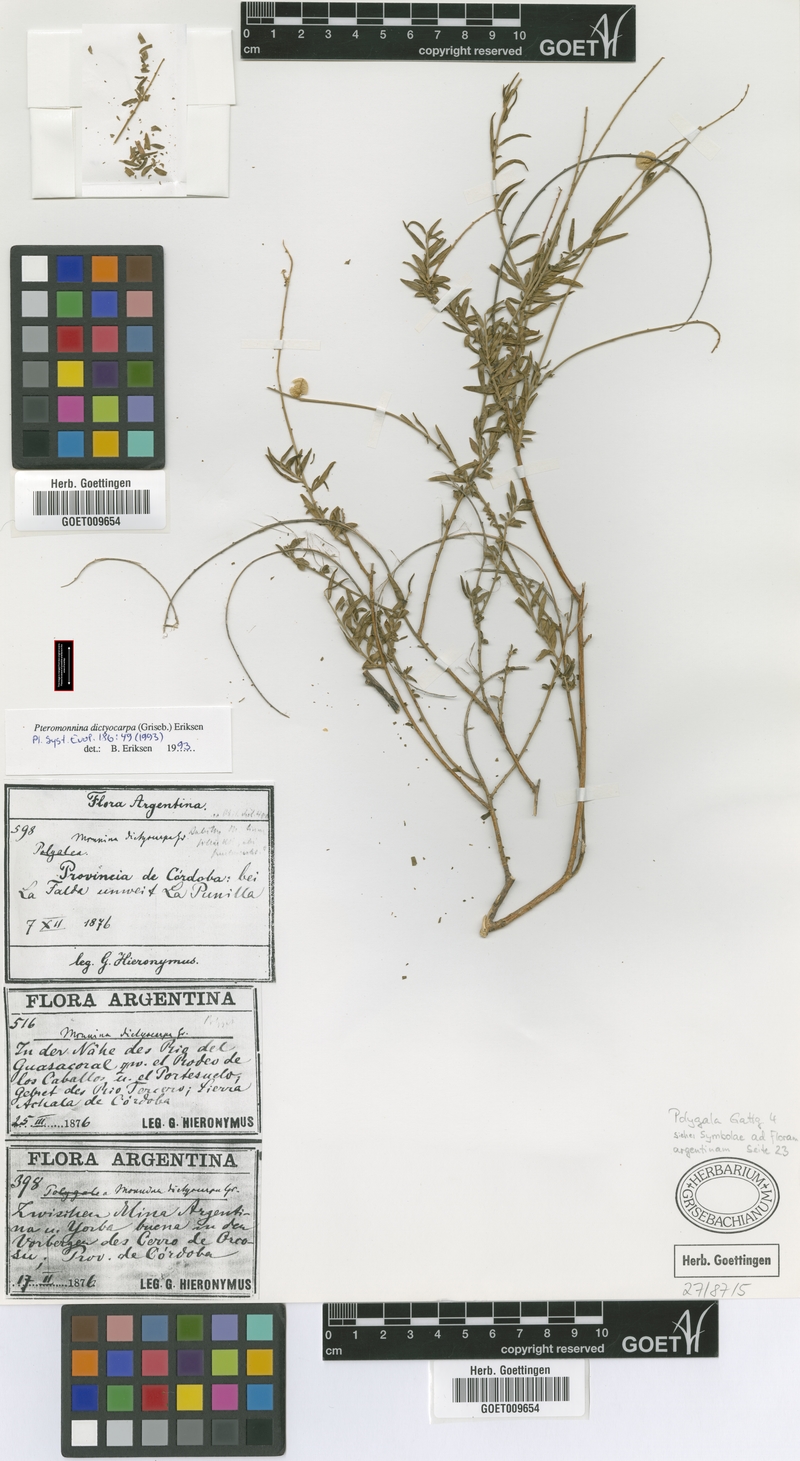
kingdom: Plantae
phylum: Tracheophyta
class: Magnoliopsida
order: Fabales
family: Polygalaceae
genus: Monnina
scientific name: Monnina dictyocarpa
